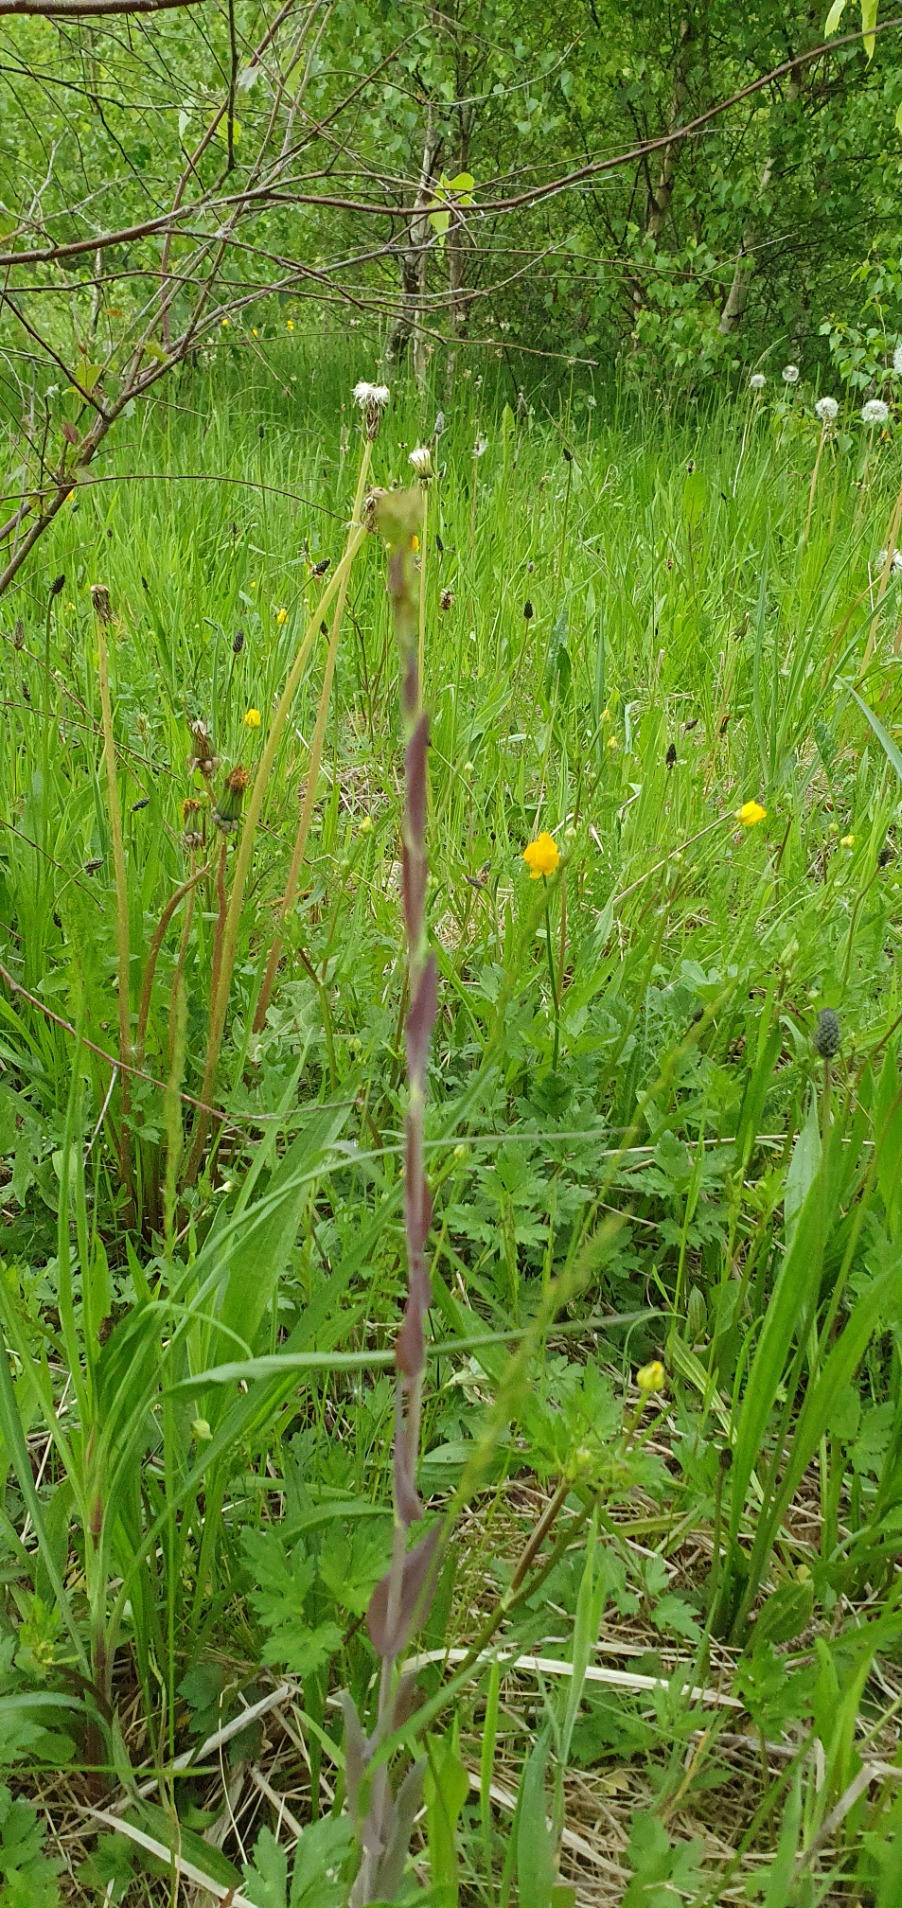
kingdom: Plantae
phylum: Tracheophyta
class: Magnoliopsida
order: Brassicales
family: Brassicaceae
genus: Turritis
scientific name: Turritis glabra
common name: Tårnurt
